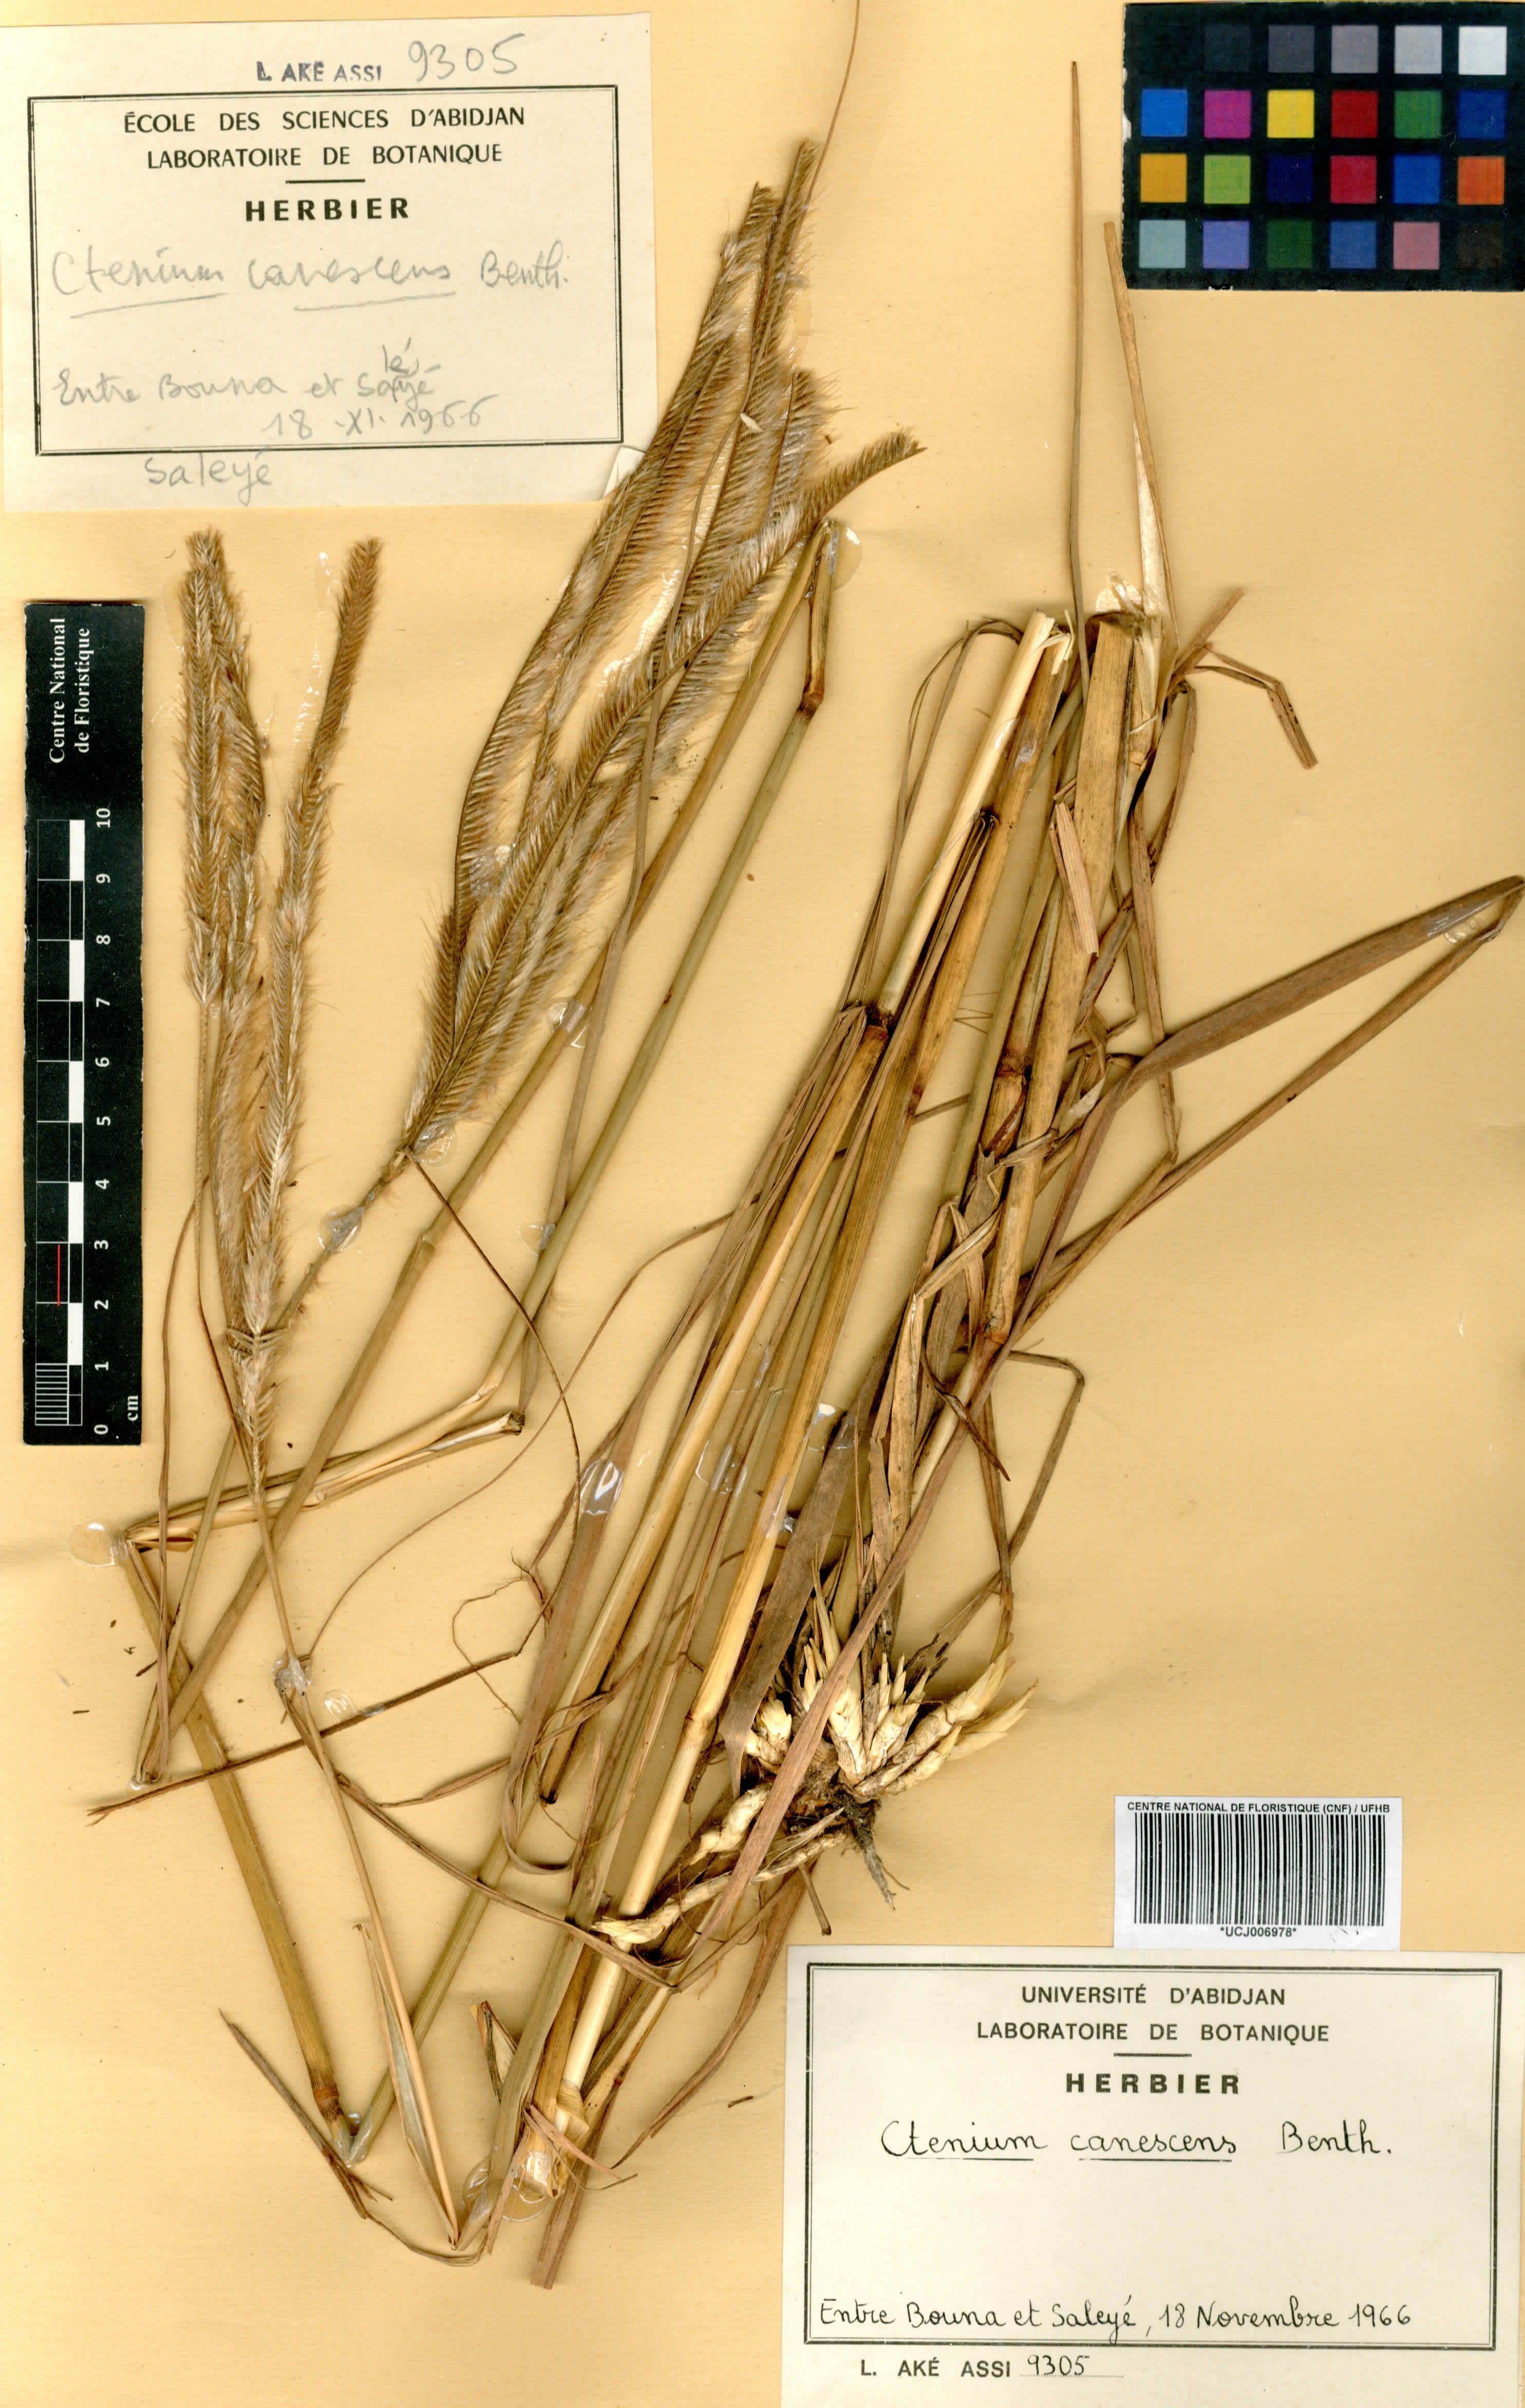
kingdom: Plantae
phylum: Tracheophyta
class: Liliopsida
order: Poales
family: Poaceae
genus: Ctenium
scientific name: Ctenium canescens
